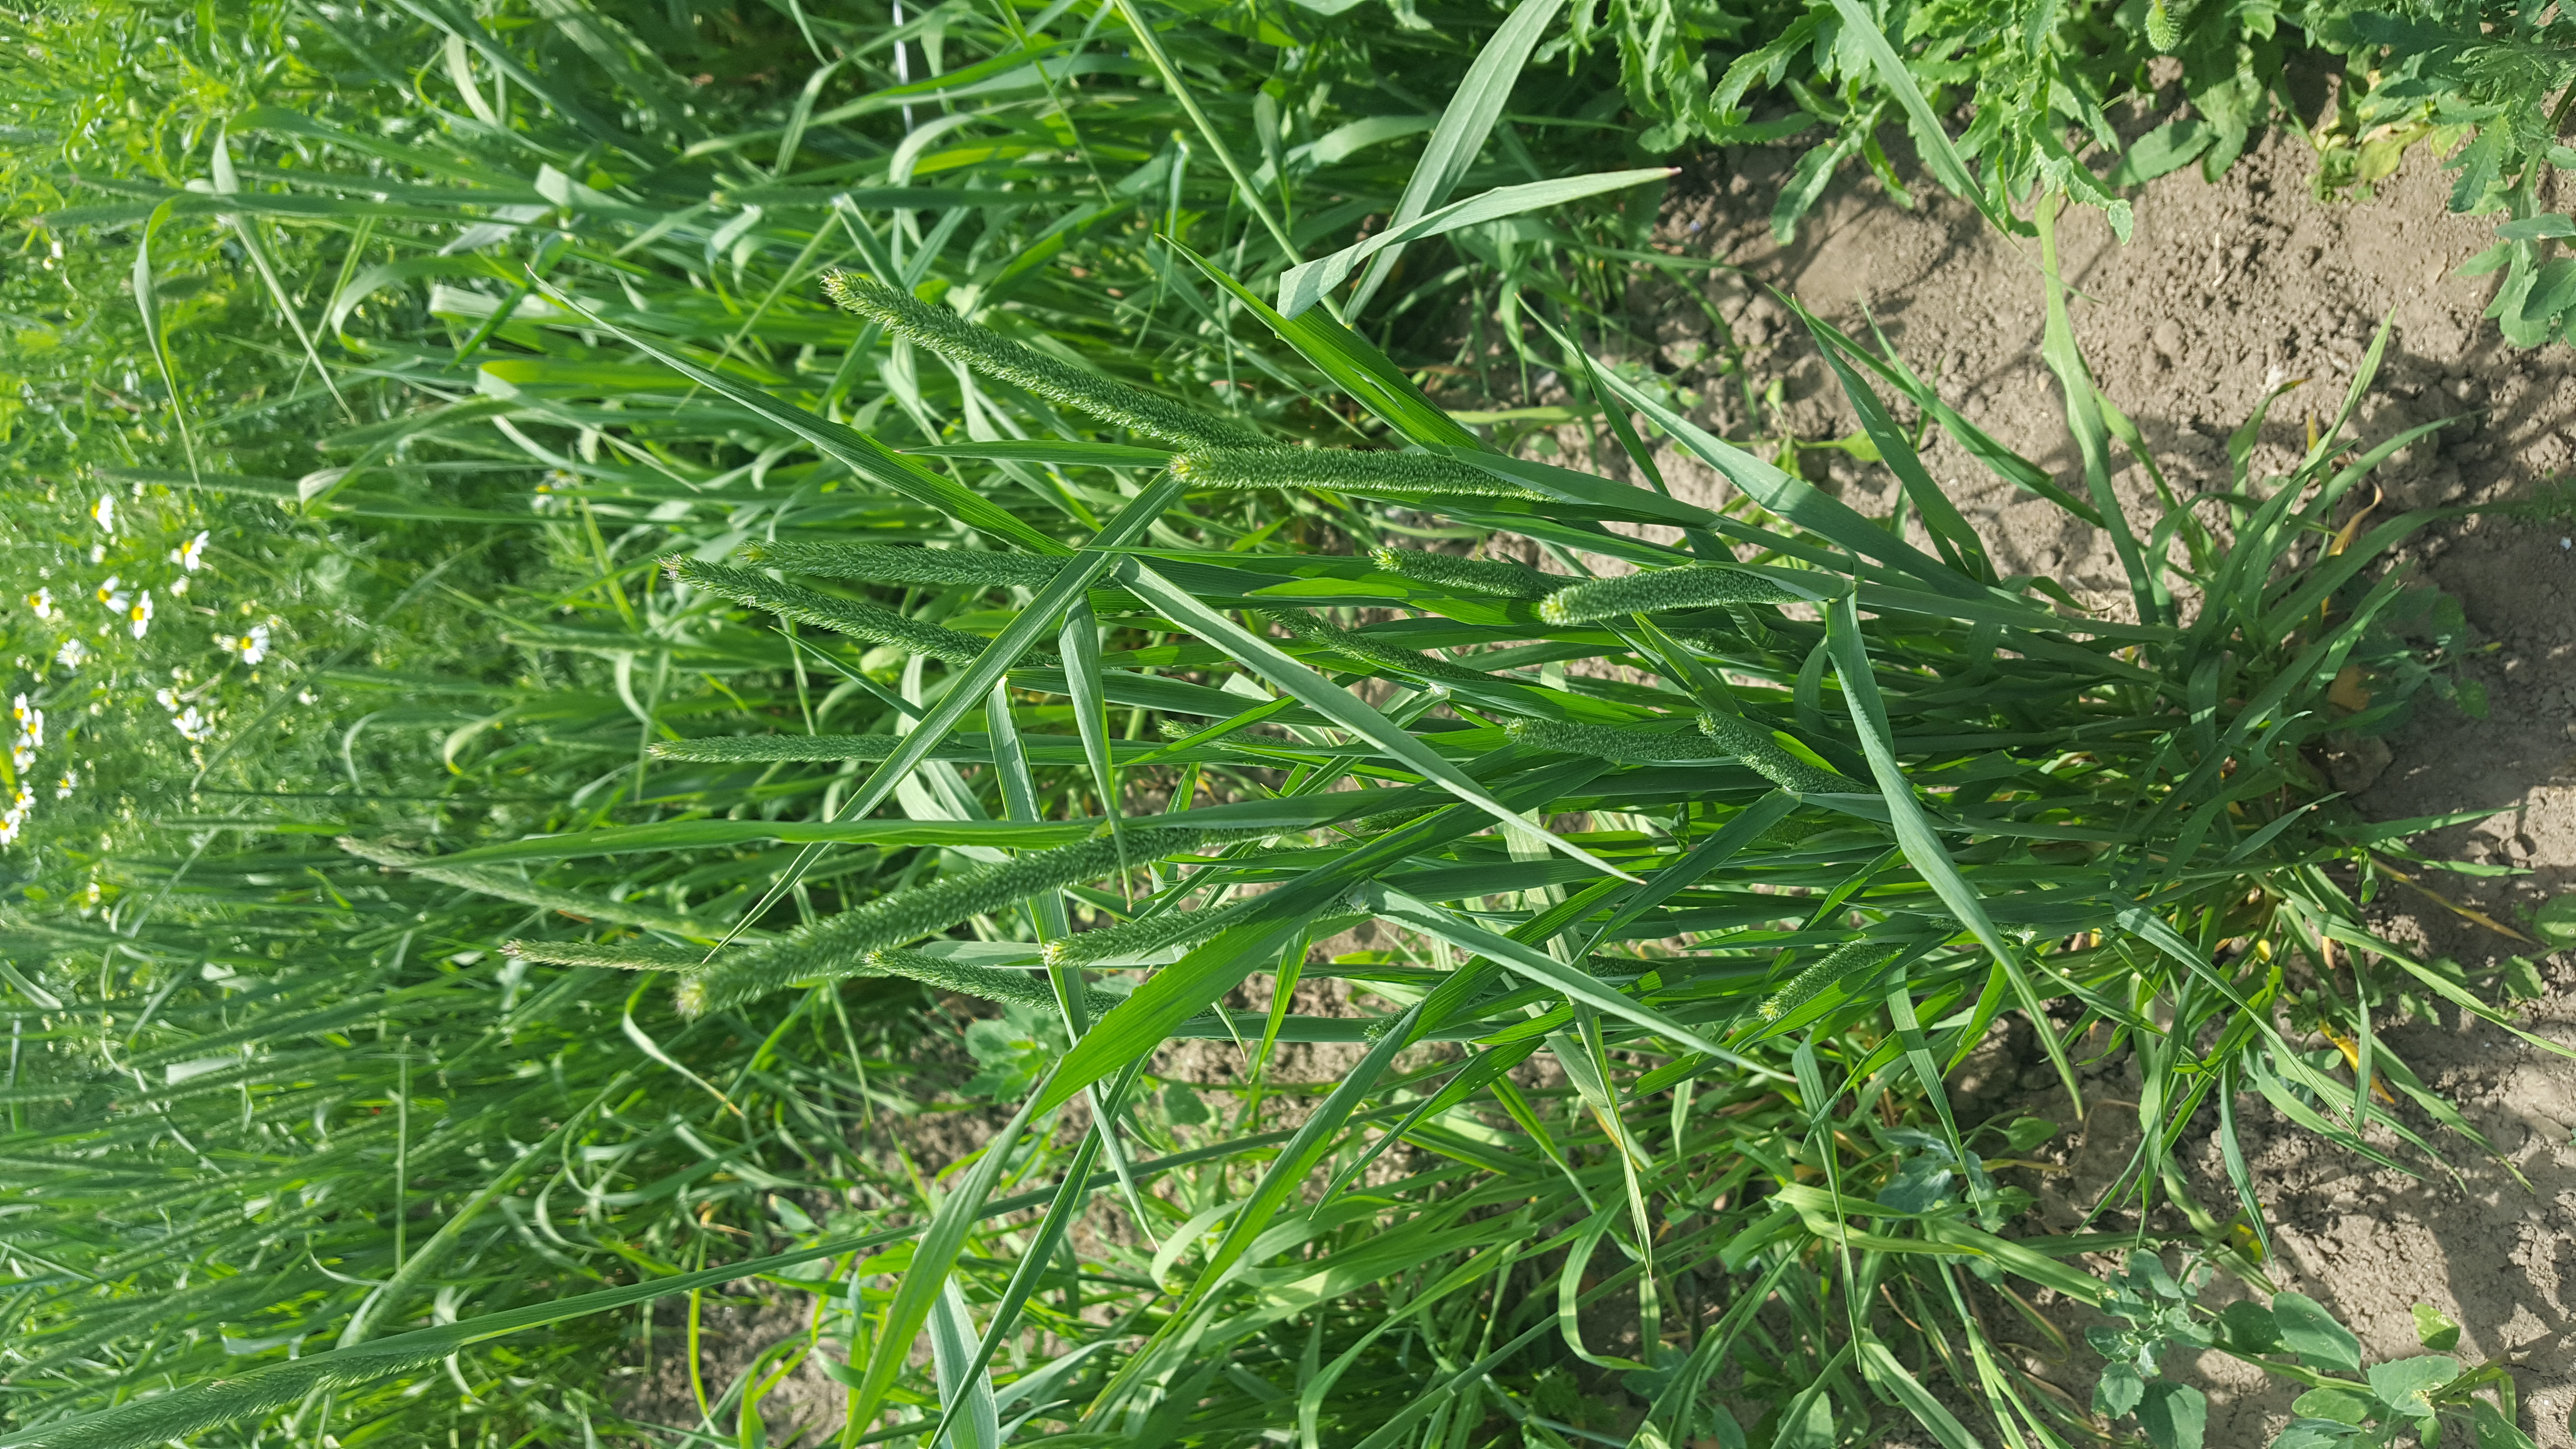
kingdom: Plantae
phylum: Tracheophyta
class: Liliopsida
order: Poales
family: Poaceae
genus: Phleum
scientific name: Phleum pratense
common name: Timothy grass
